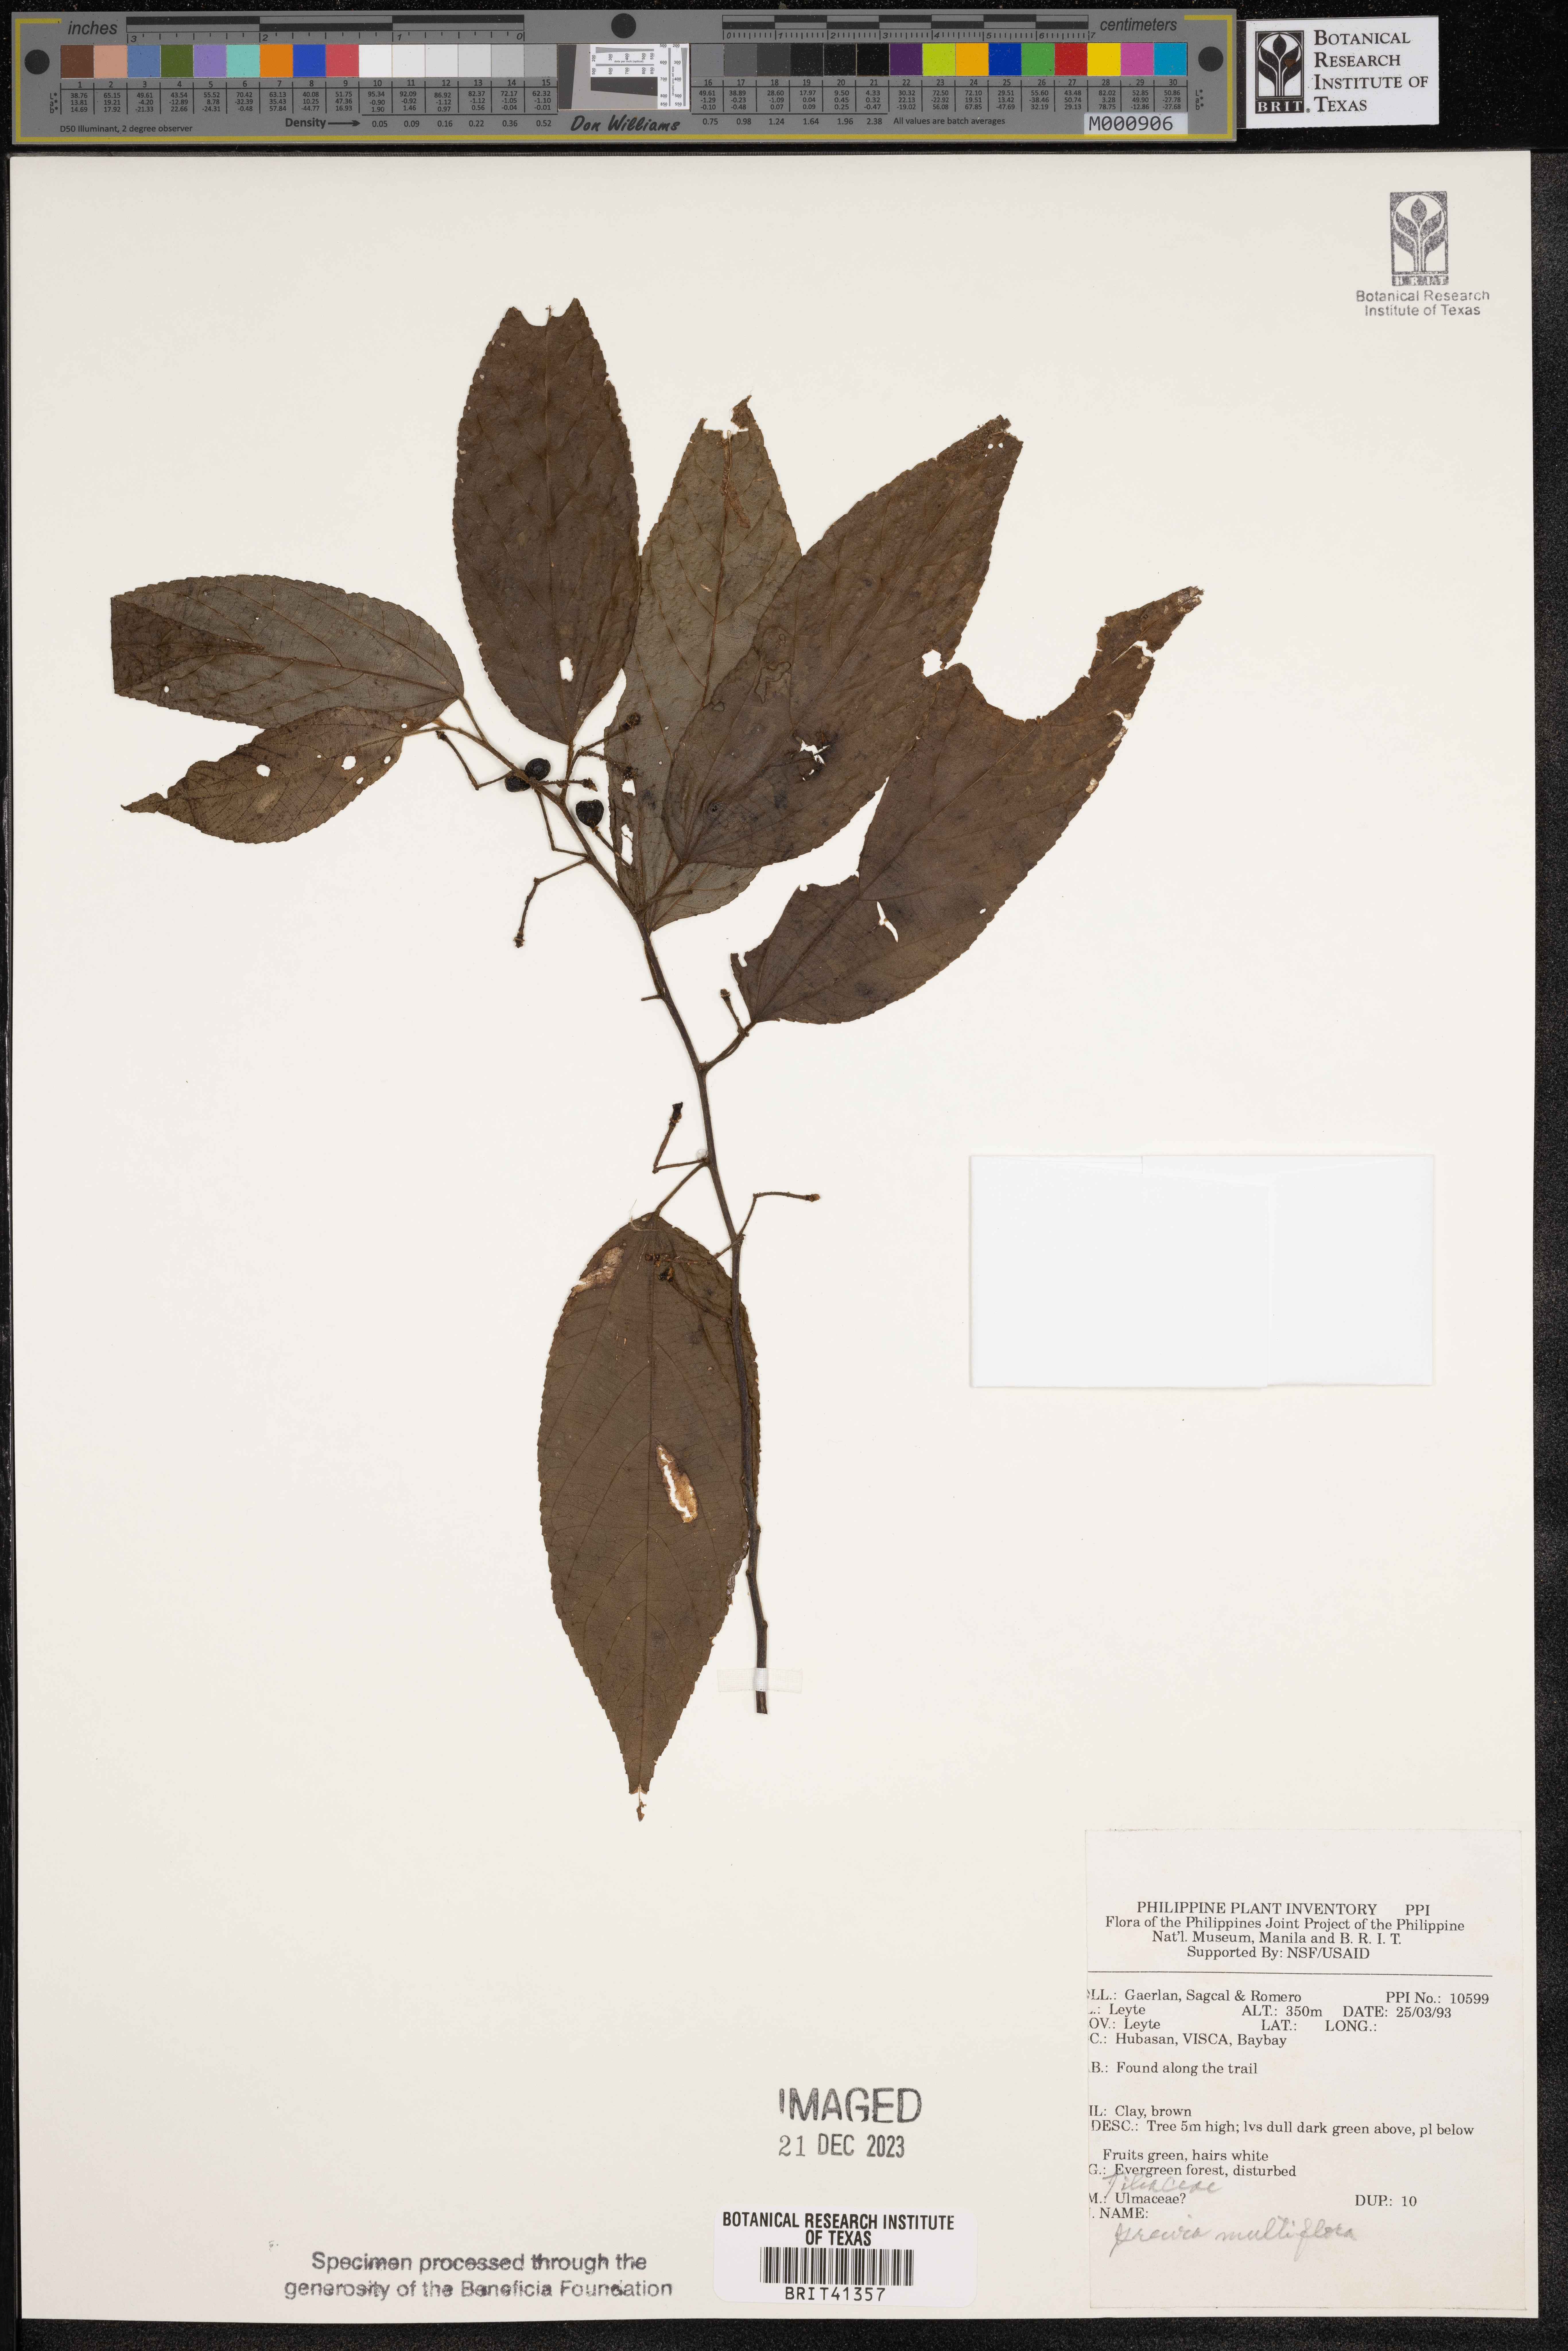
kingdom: Plantae
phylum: Tracheophyta
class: Magnoliopsida
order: Malvales
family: Malvaceae
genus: Grewia
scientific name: Grewia multiflora
